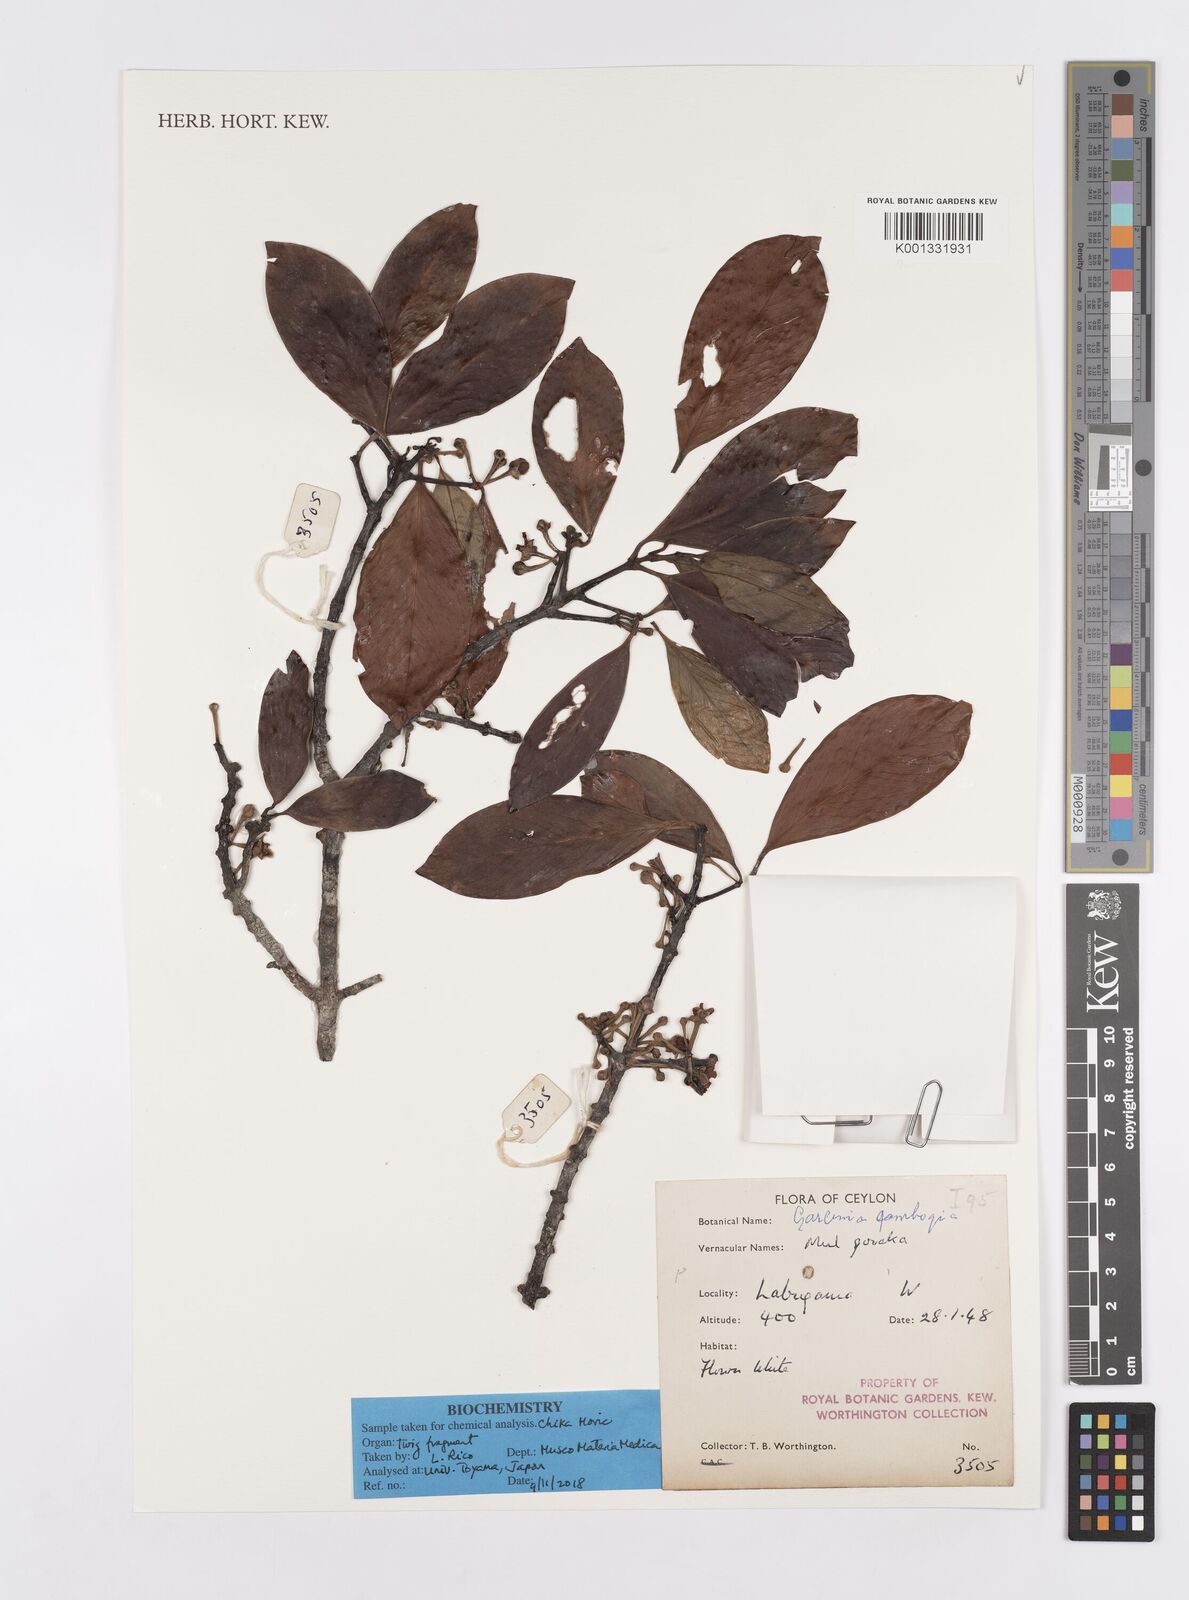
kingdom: Plantae
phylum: Tracheophyta
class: Magnoliopsida
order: Malpighiales
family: Clusiaceae
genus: Garcinia
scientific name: Garcinia gummi-gutta
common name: Malabar tamarind
